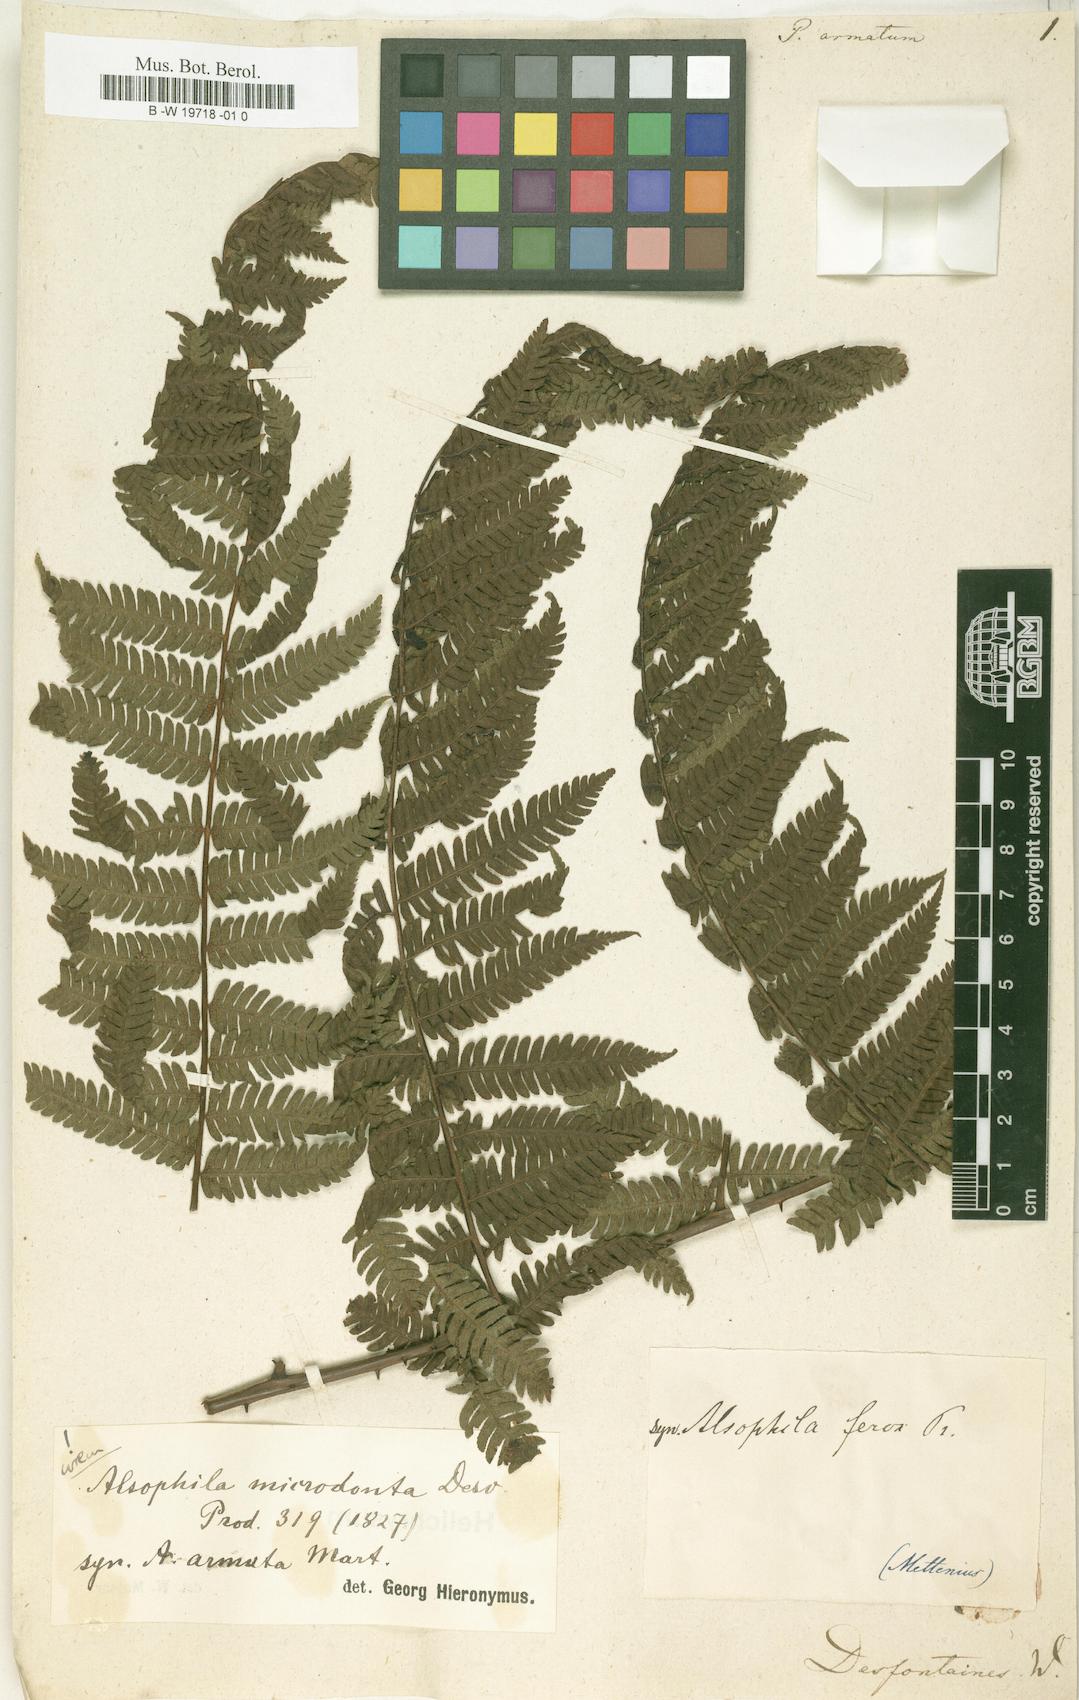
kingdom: Plantae
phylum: Tracheophyta
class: Polypodiopsida
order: Polypodiales
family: Polypodiaceae
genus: Polypodium
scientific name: Polypodium arcanum
